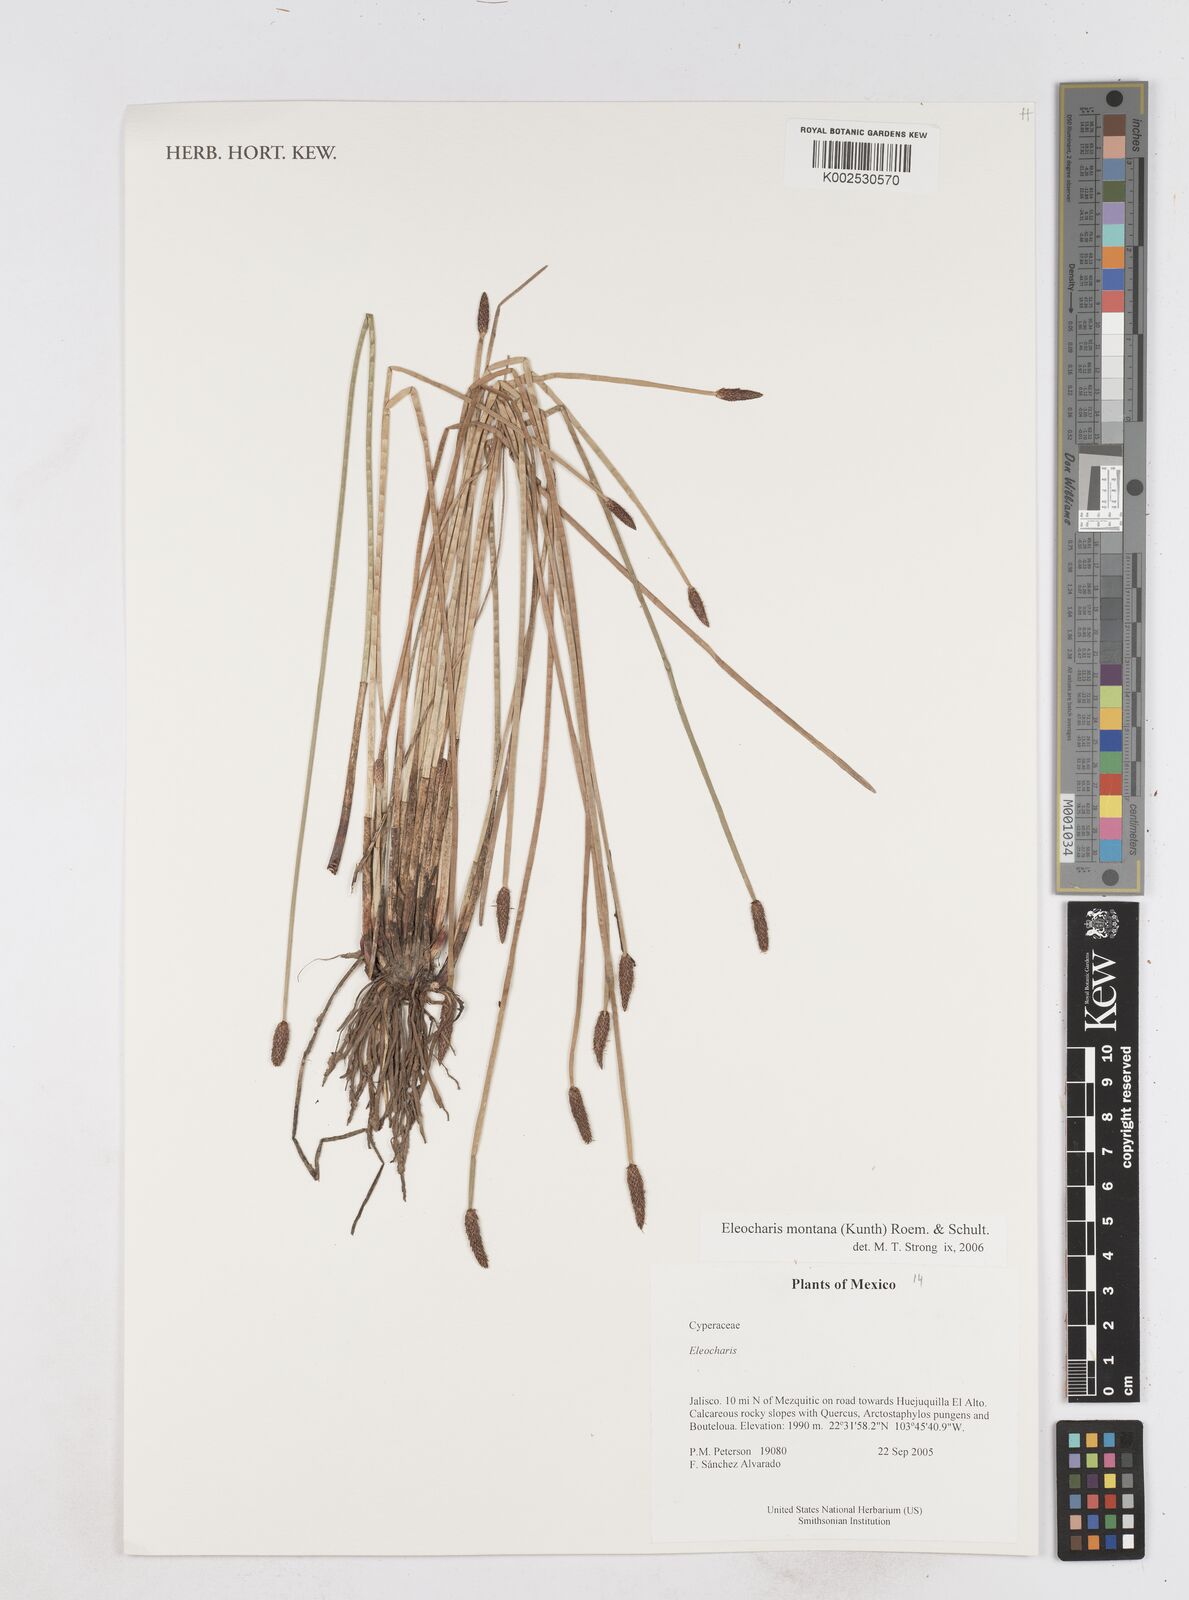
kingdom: Plantae
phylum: Tracheophyta
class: Liliopsida
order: Poales
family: Cyperaceae
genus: Eleocharis
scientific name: Eleocharis montana
